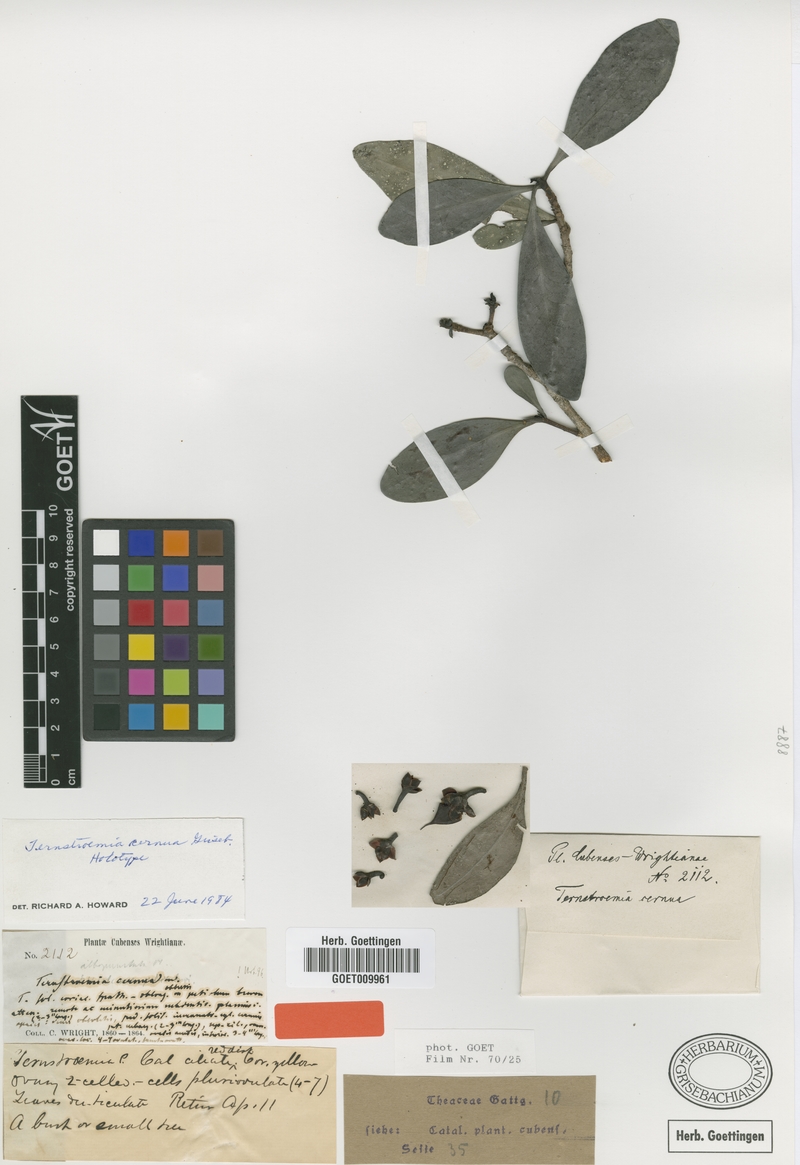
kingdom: Plantae
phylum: Tracheophyta
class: Magnoliopsida
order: Ericales
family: Pentaphylacaceae
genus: Ternstroemia
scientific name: Ternstroemia cernua
